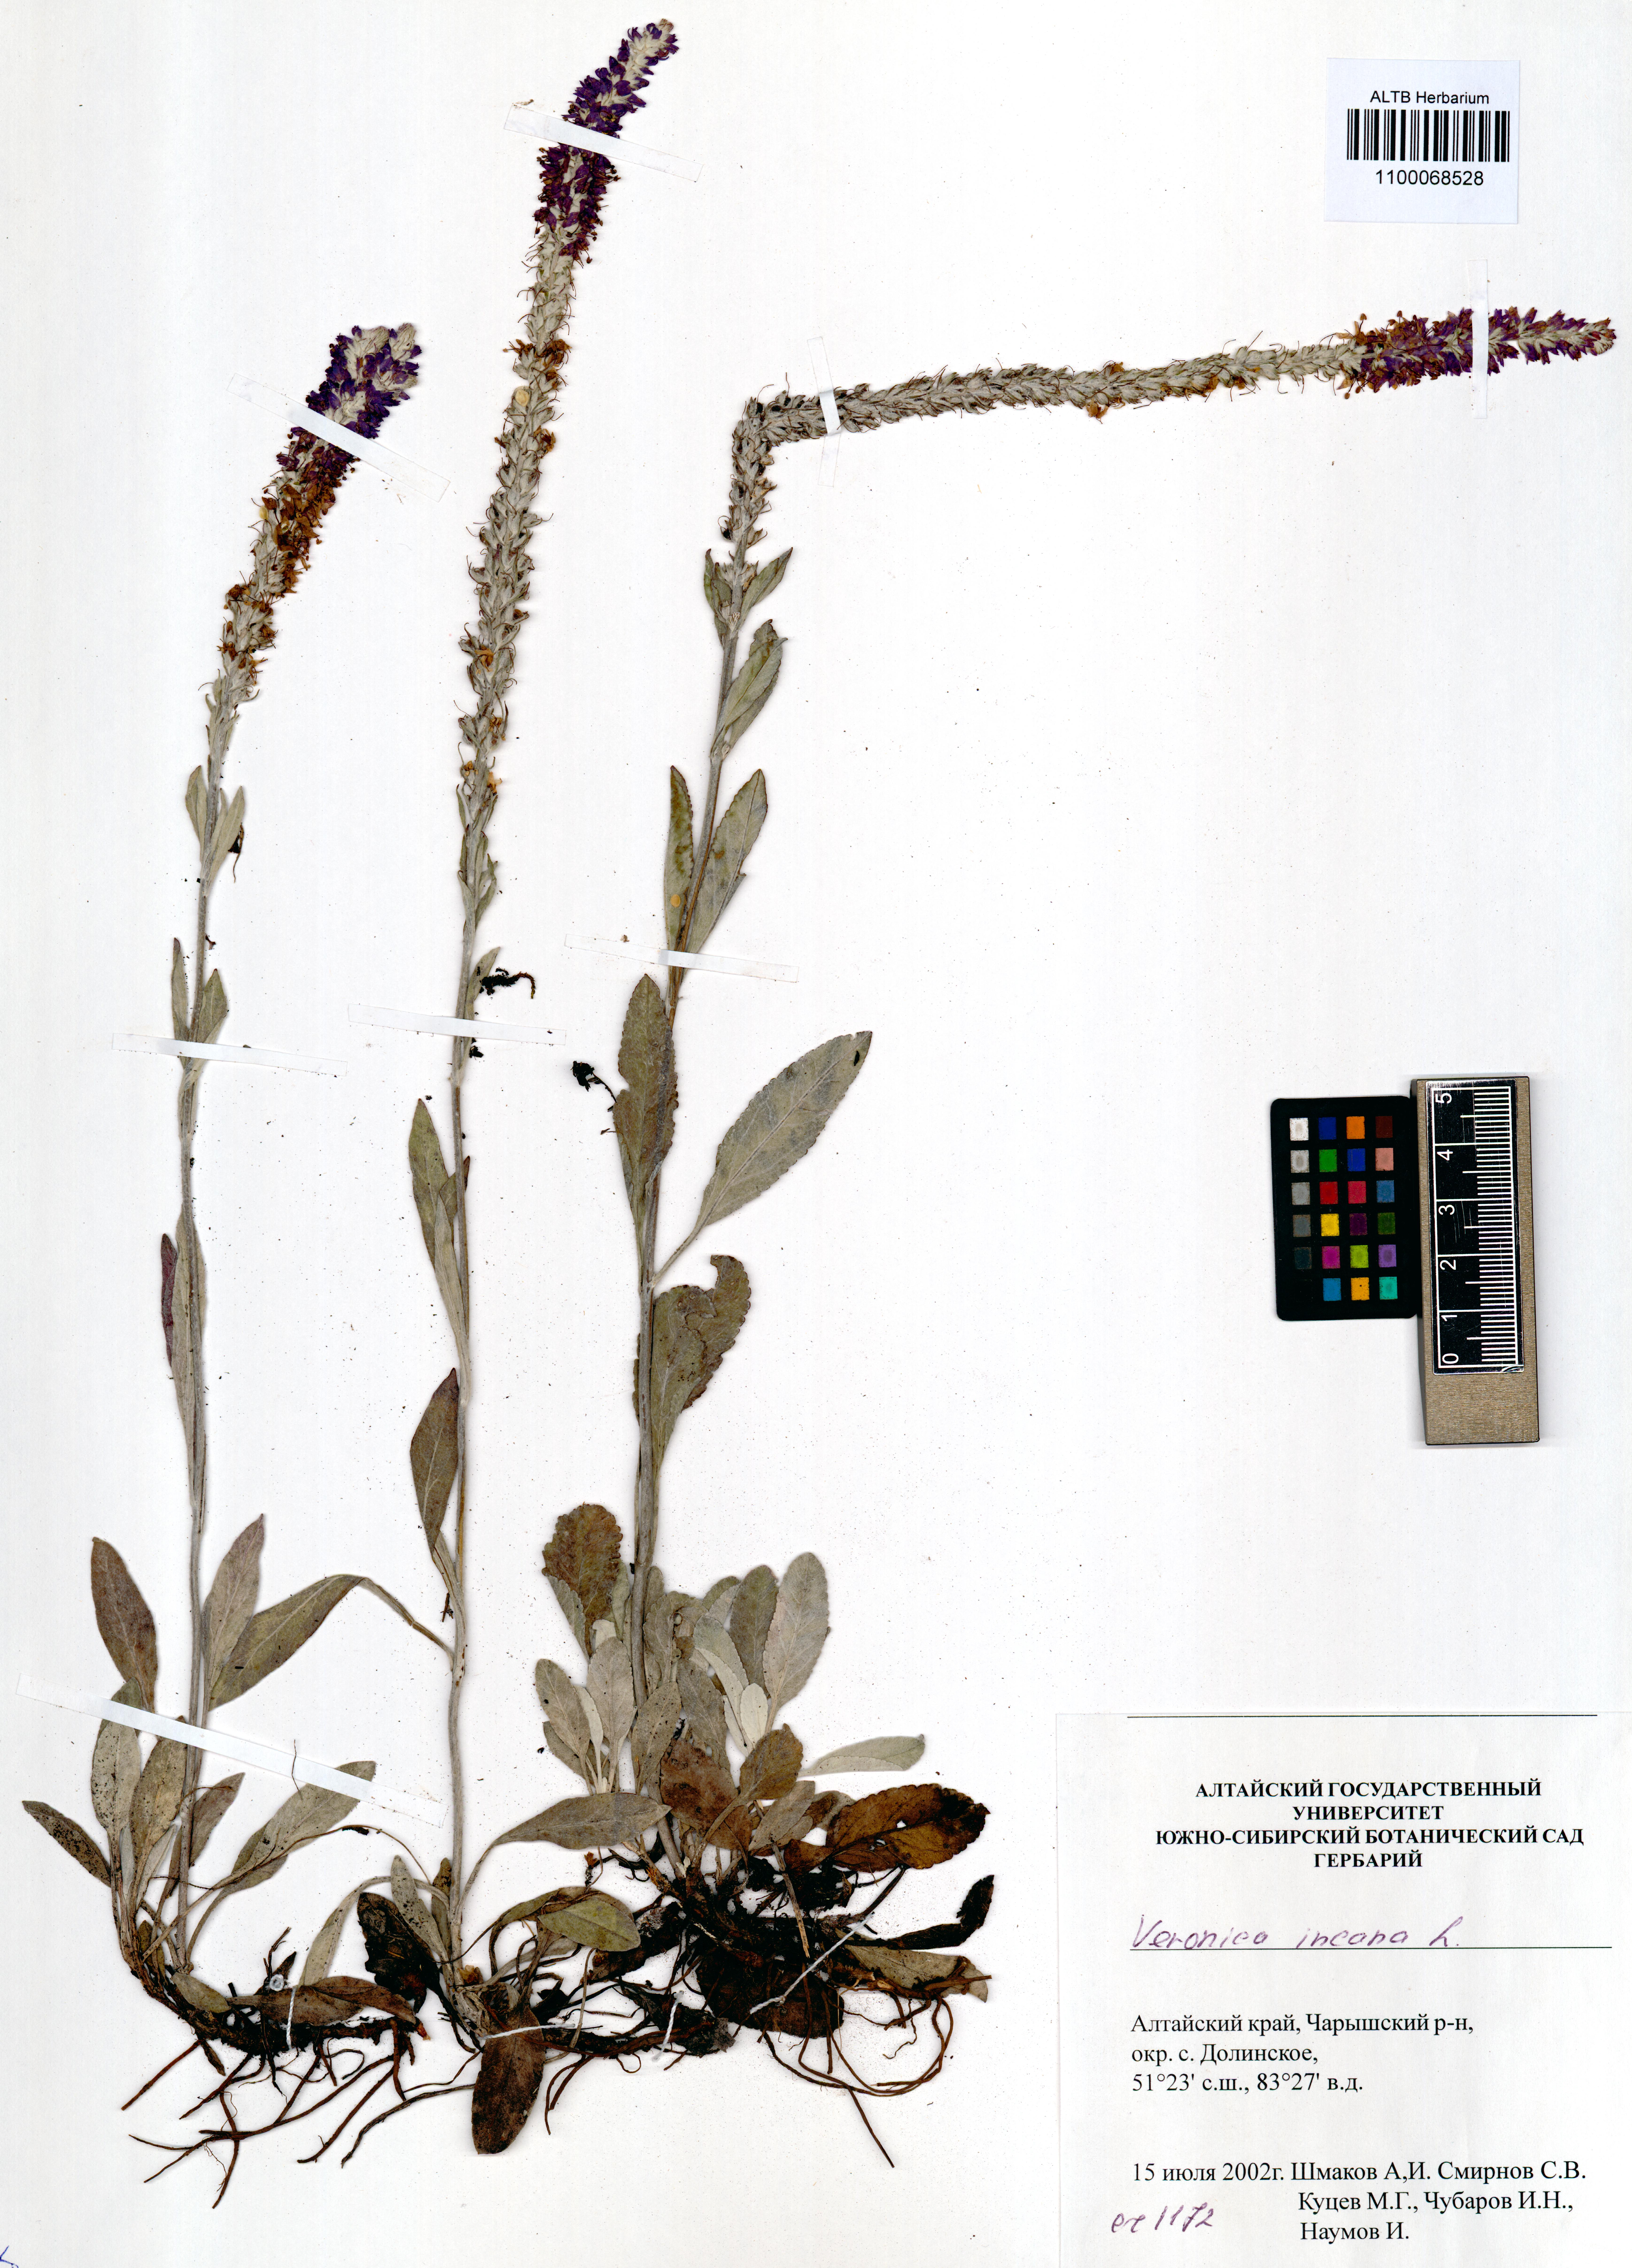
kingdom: Plantae
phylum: Tracheophyta
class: Magnoliopsida
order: Lamiales
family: Plantaginaceae
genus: Veronica
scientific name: Veronica incana
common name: Silver speedwell
